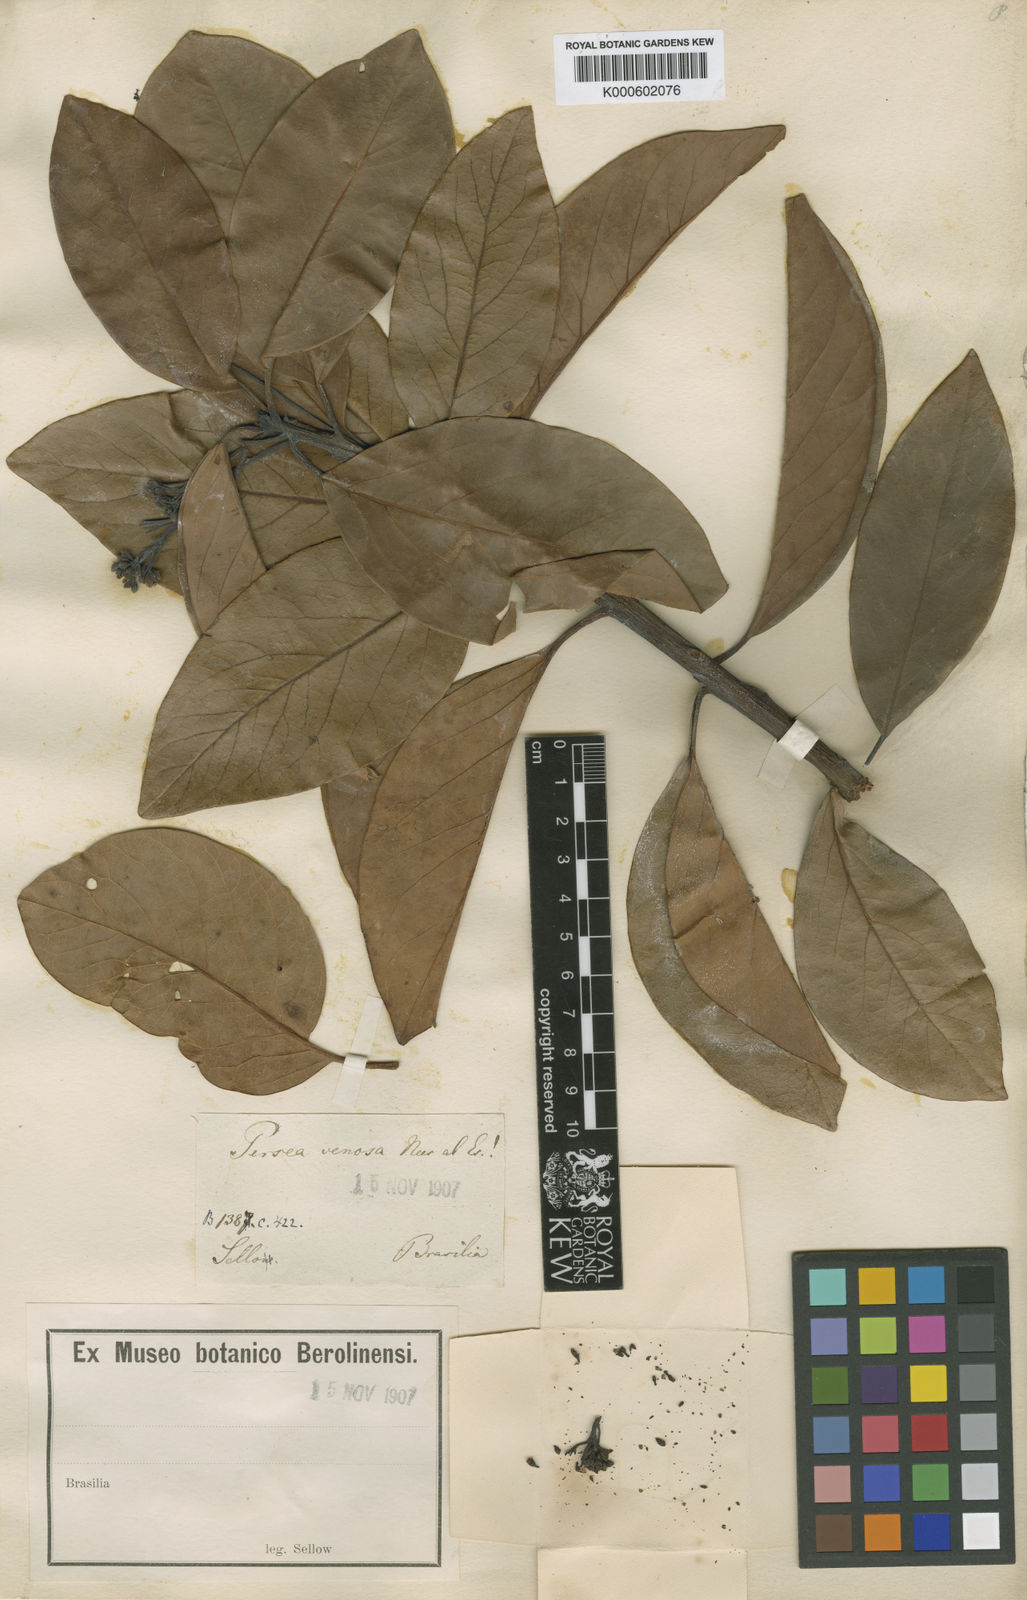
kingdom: Plantae
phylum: Tracheophyta
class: Magnoliopsida
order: Laurales
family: Lauraceae
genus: Persea
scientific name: Persea venosa
